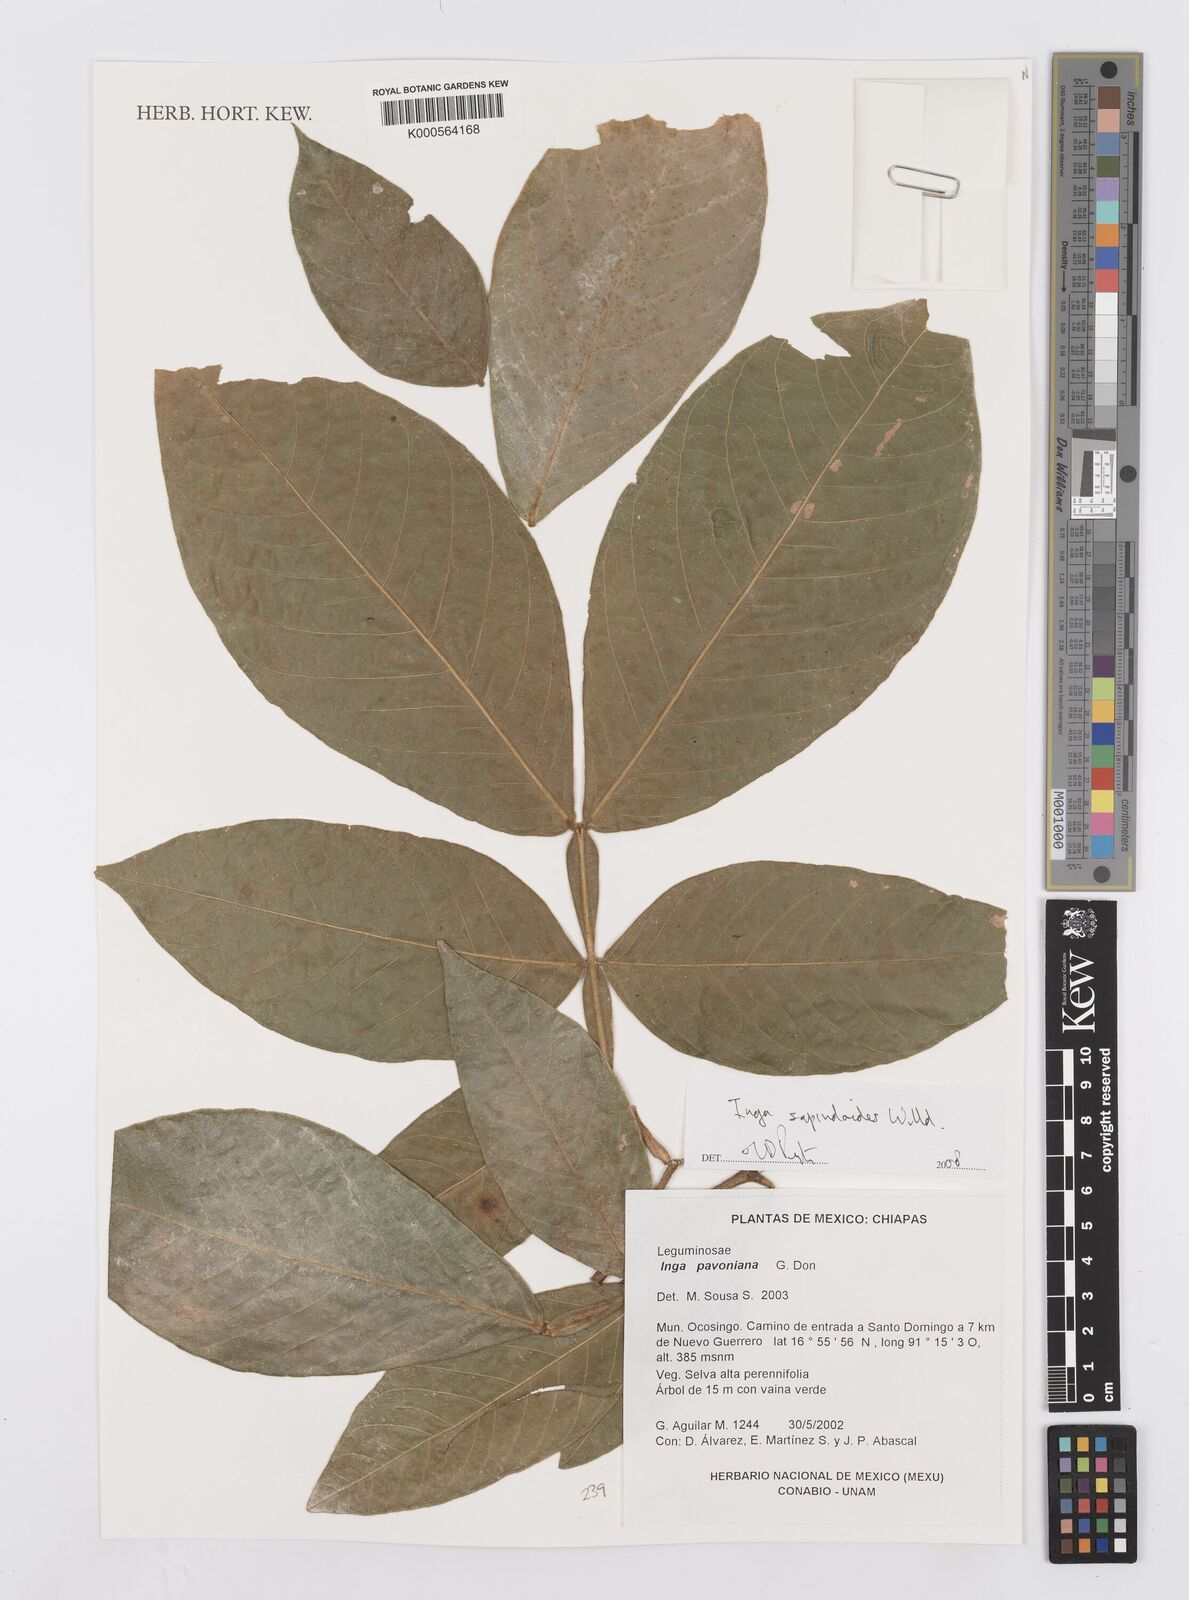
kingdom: Plantae
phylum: Tracheophyta
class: Magnoliopsida
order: Fabales
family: Fabaceae
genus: Inga
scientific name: Inga sapindoides
